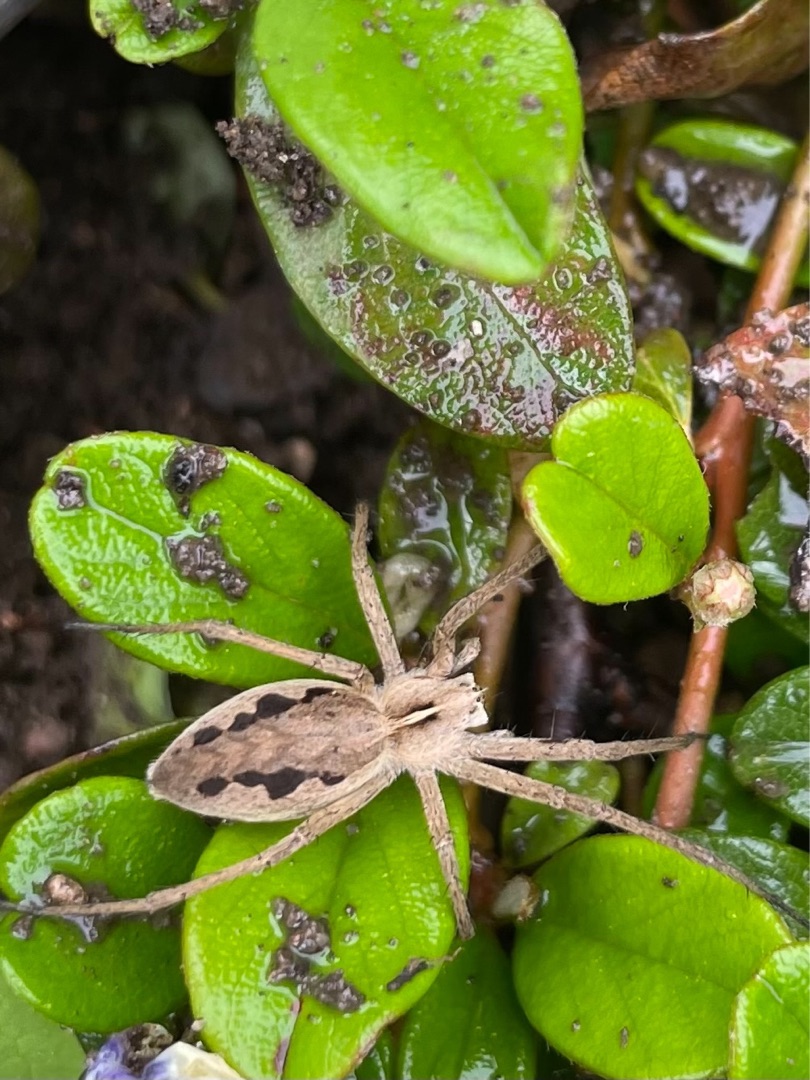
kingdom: Animalia
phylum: Arthropoda
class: Arachnida
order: Araneae
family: Pisauridae
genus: Pisaura
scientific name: Pisaura mirabilis
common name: Almindelig rovedderkop
